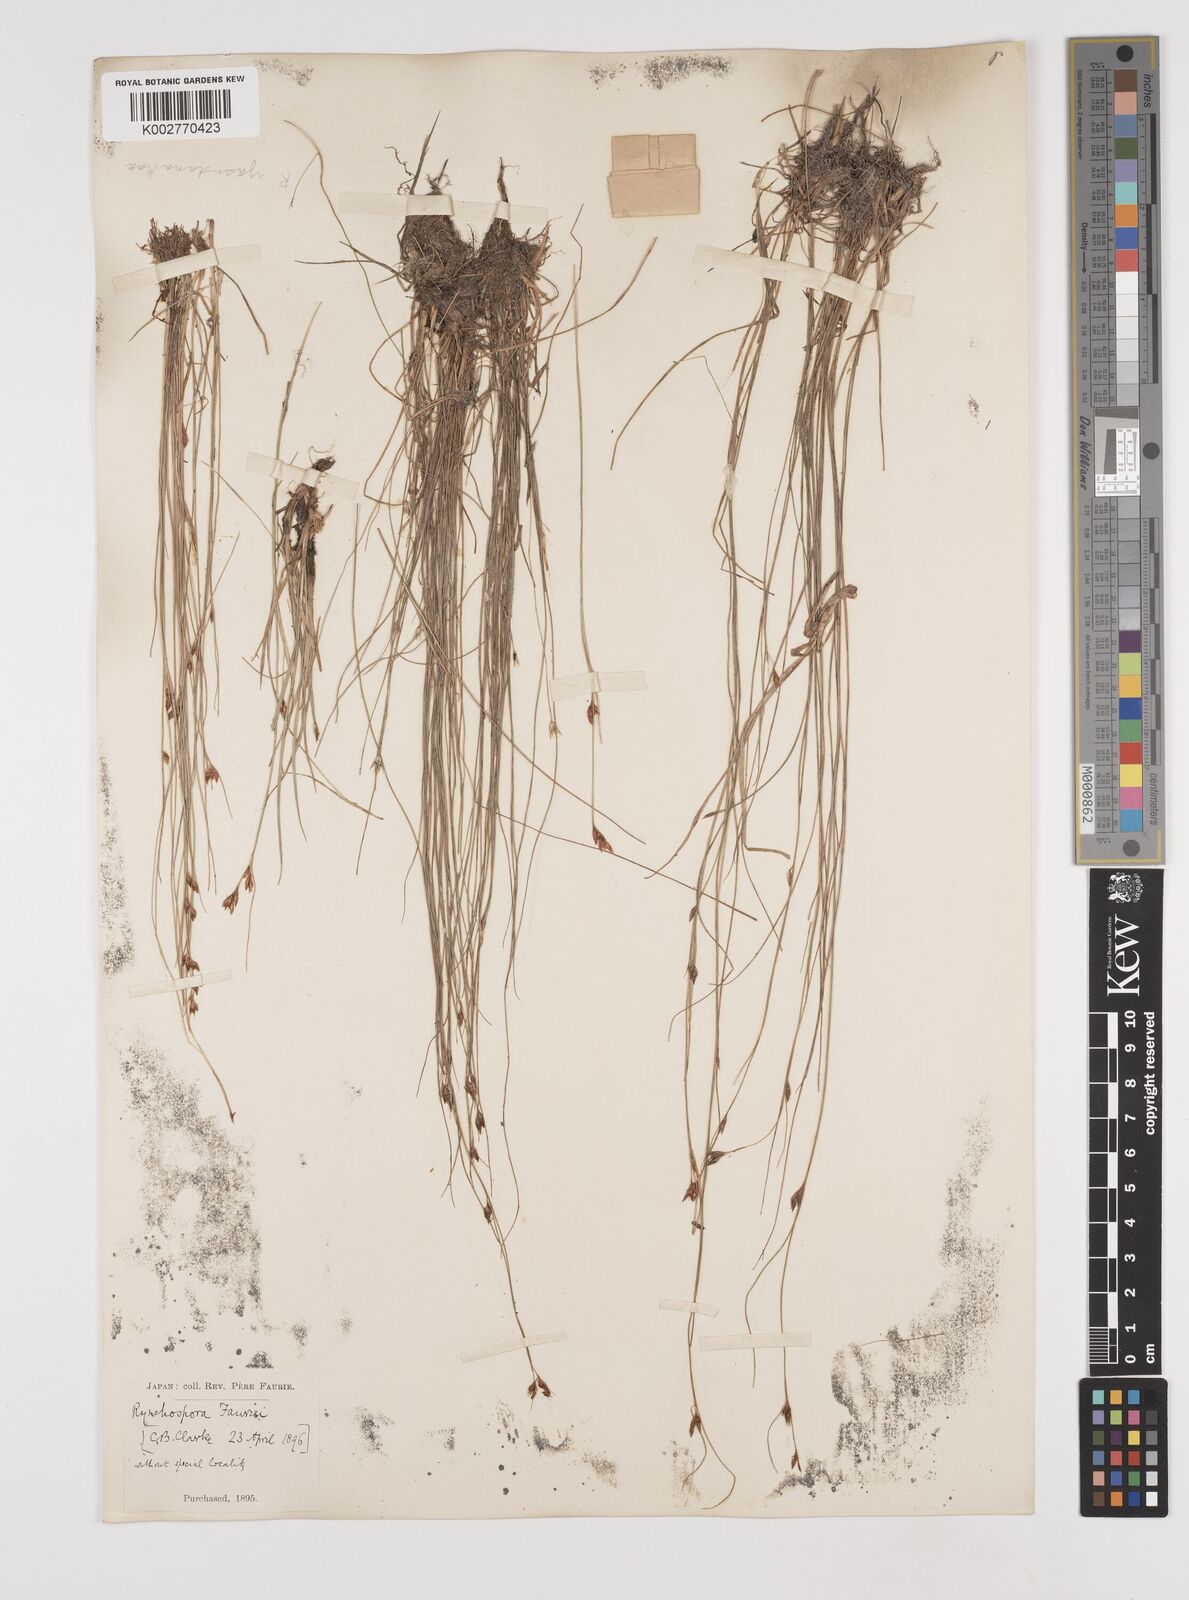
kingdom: Plantae
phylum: Tracheophyta
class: Liliopsida
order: Poales
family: Cyperaceae
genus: Rhynchospora
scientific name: Rhynchospora fauriei
